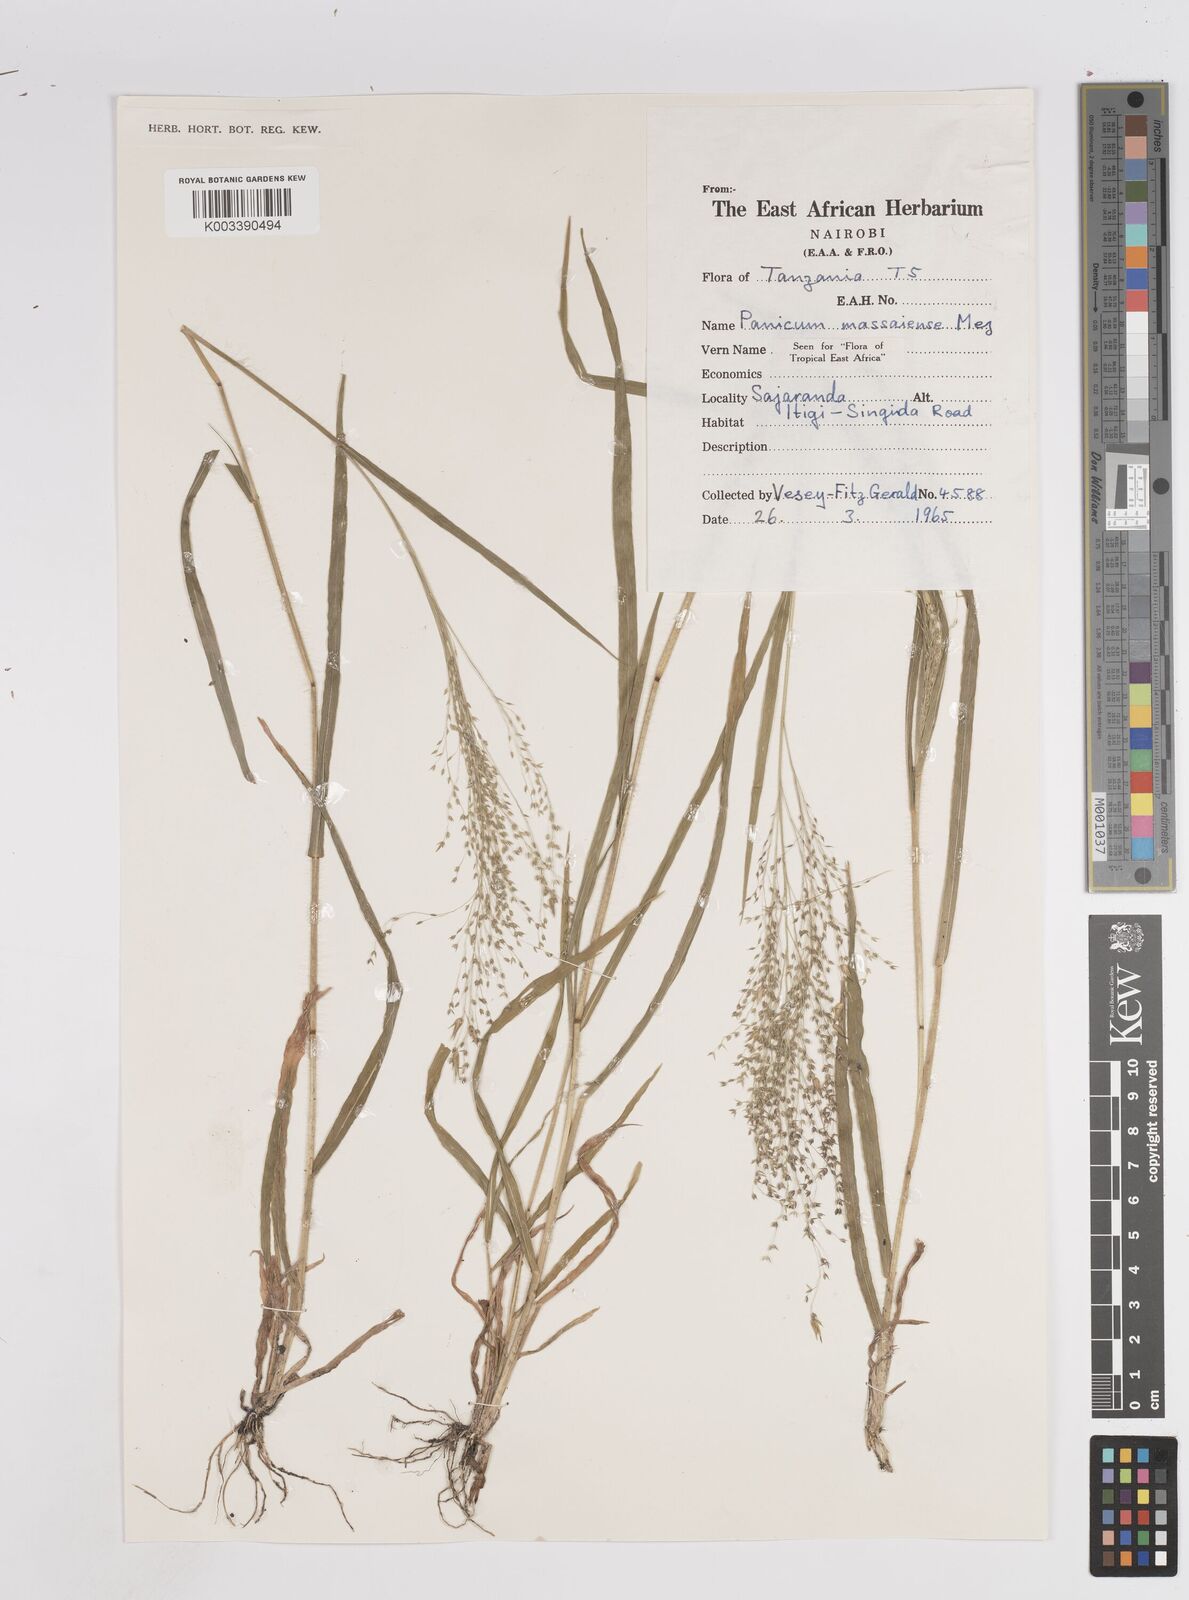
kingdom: Plantae
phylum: Tracheophyta
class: Liliopsida
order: Poales
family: Poaceae
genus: Panicum
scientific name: Panicum massaiense
